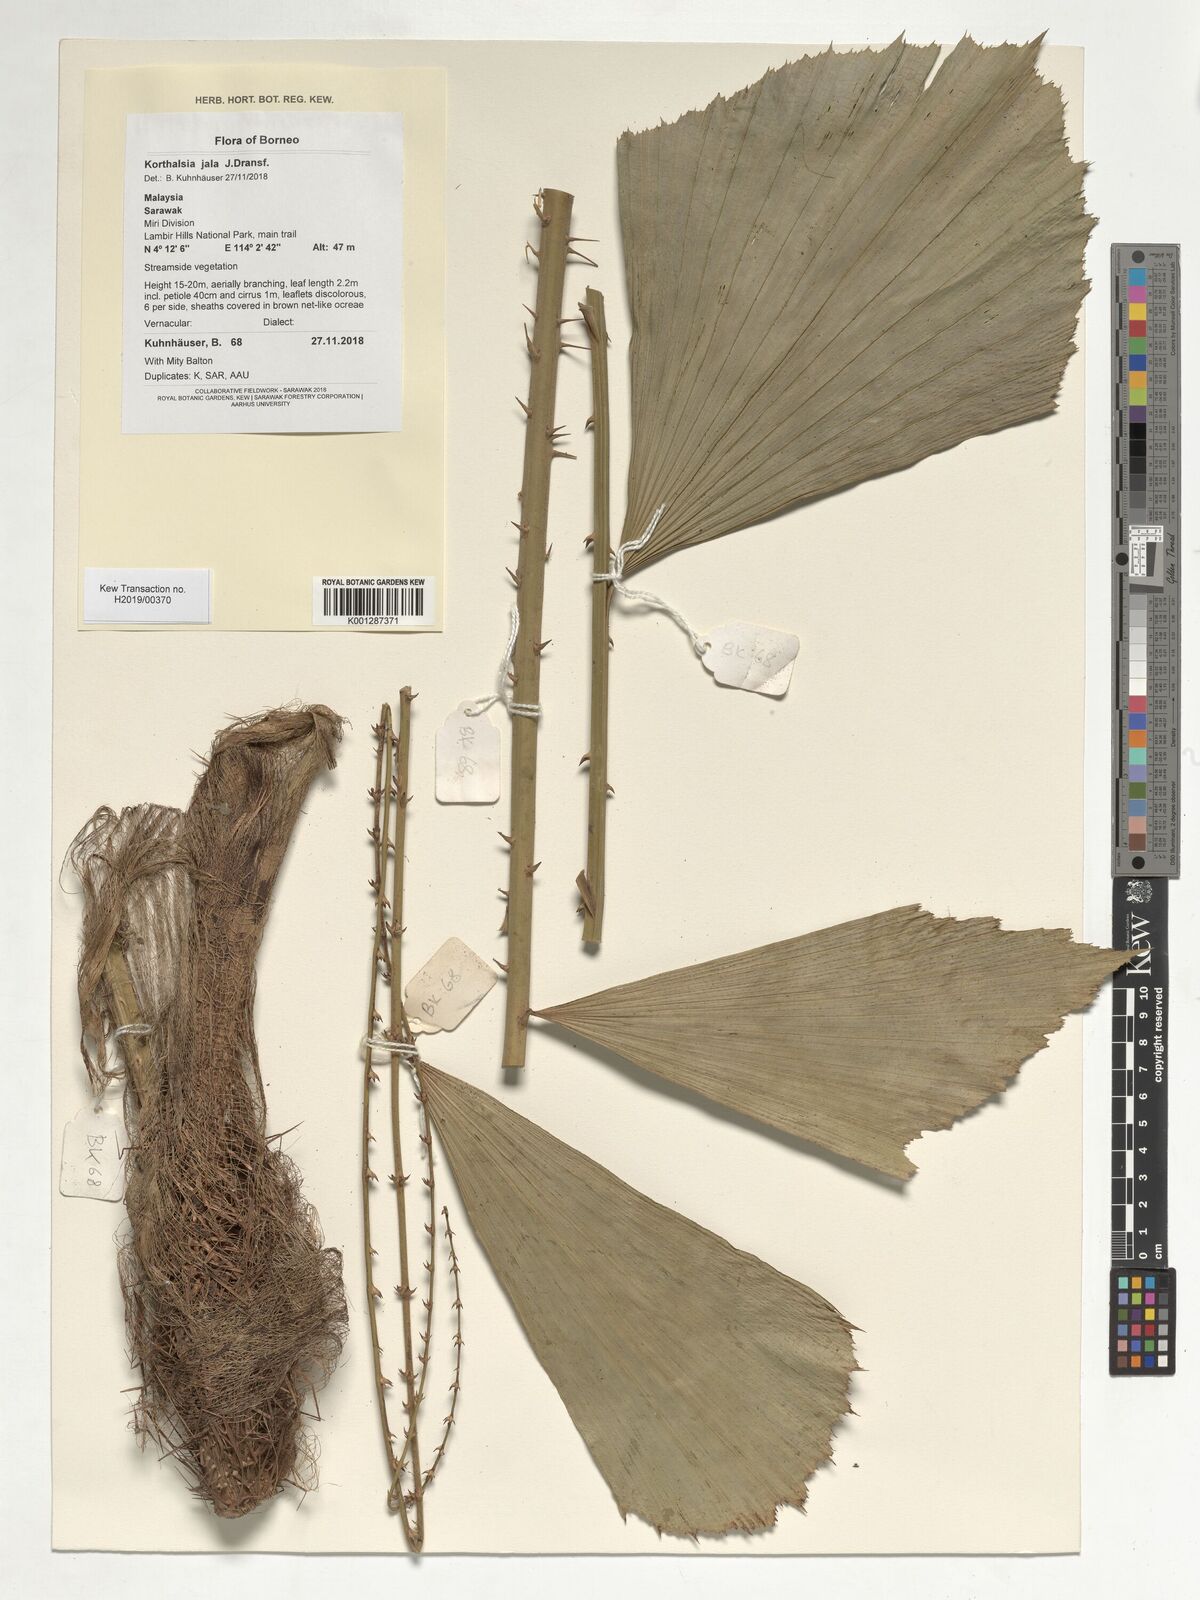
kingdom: Plantae
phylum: Tracheophyta
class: Liliopsida
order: Arecales
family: Arecaceae
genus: Korthalsia
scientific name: Korthalsia jala
